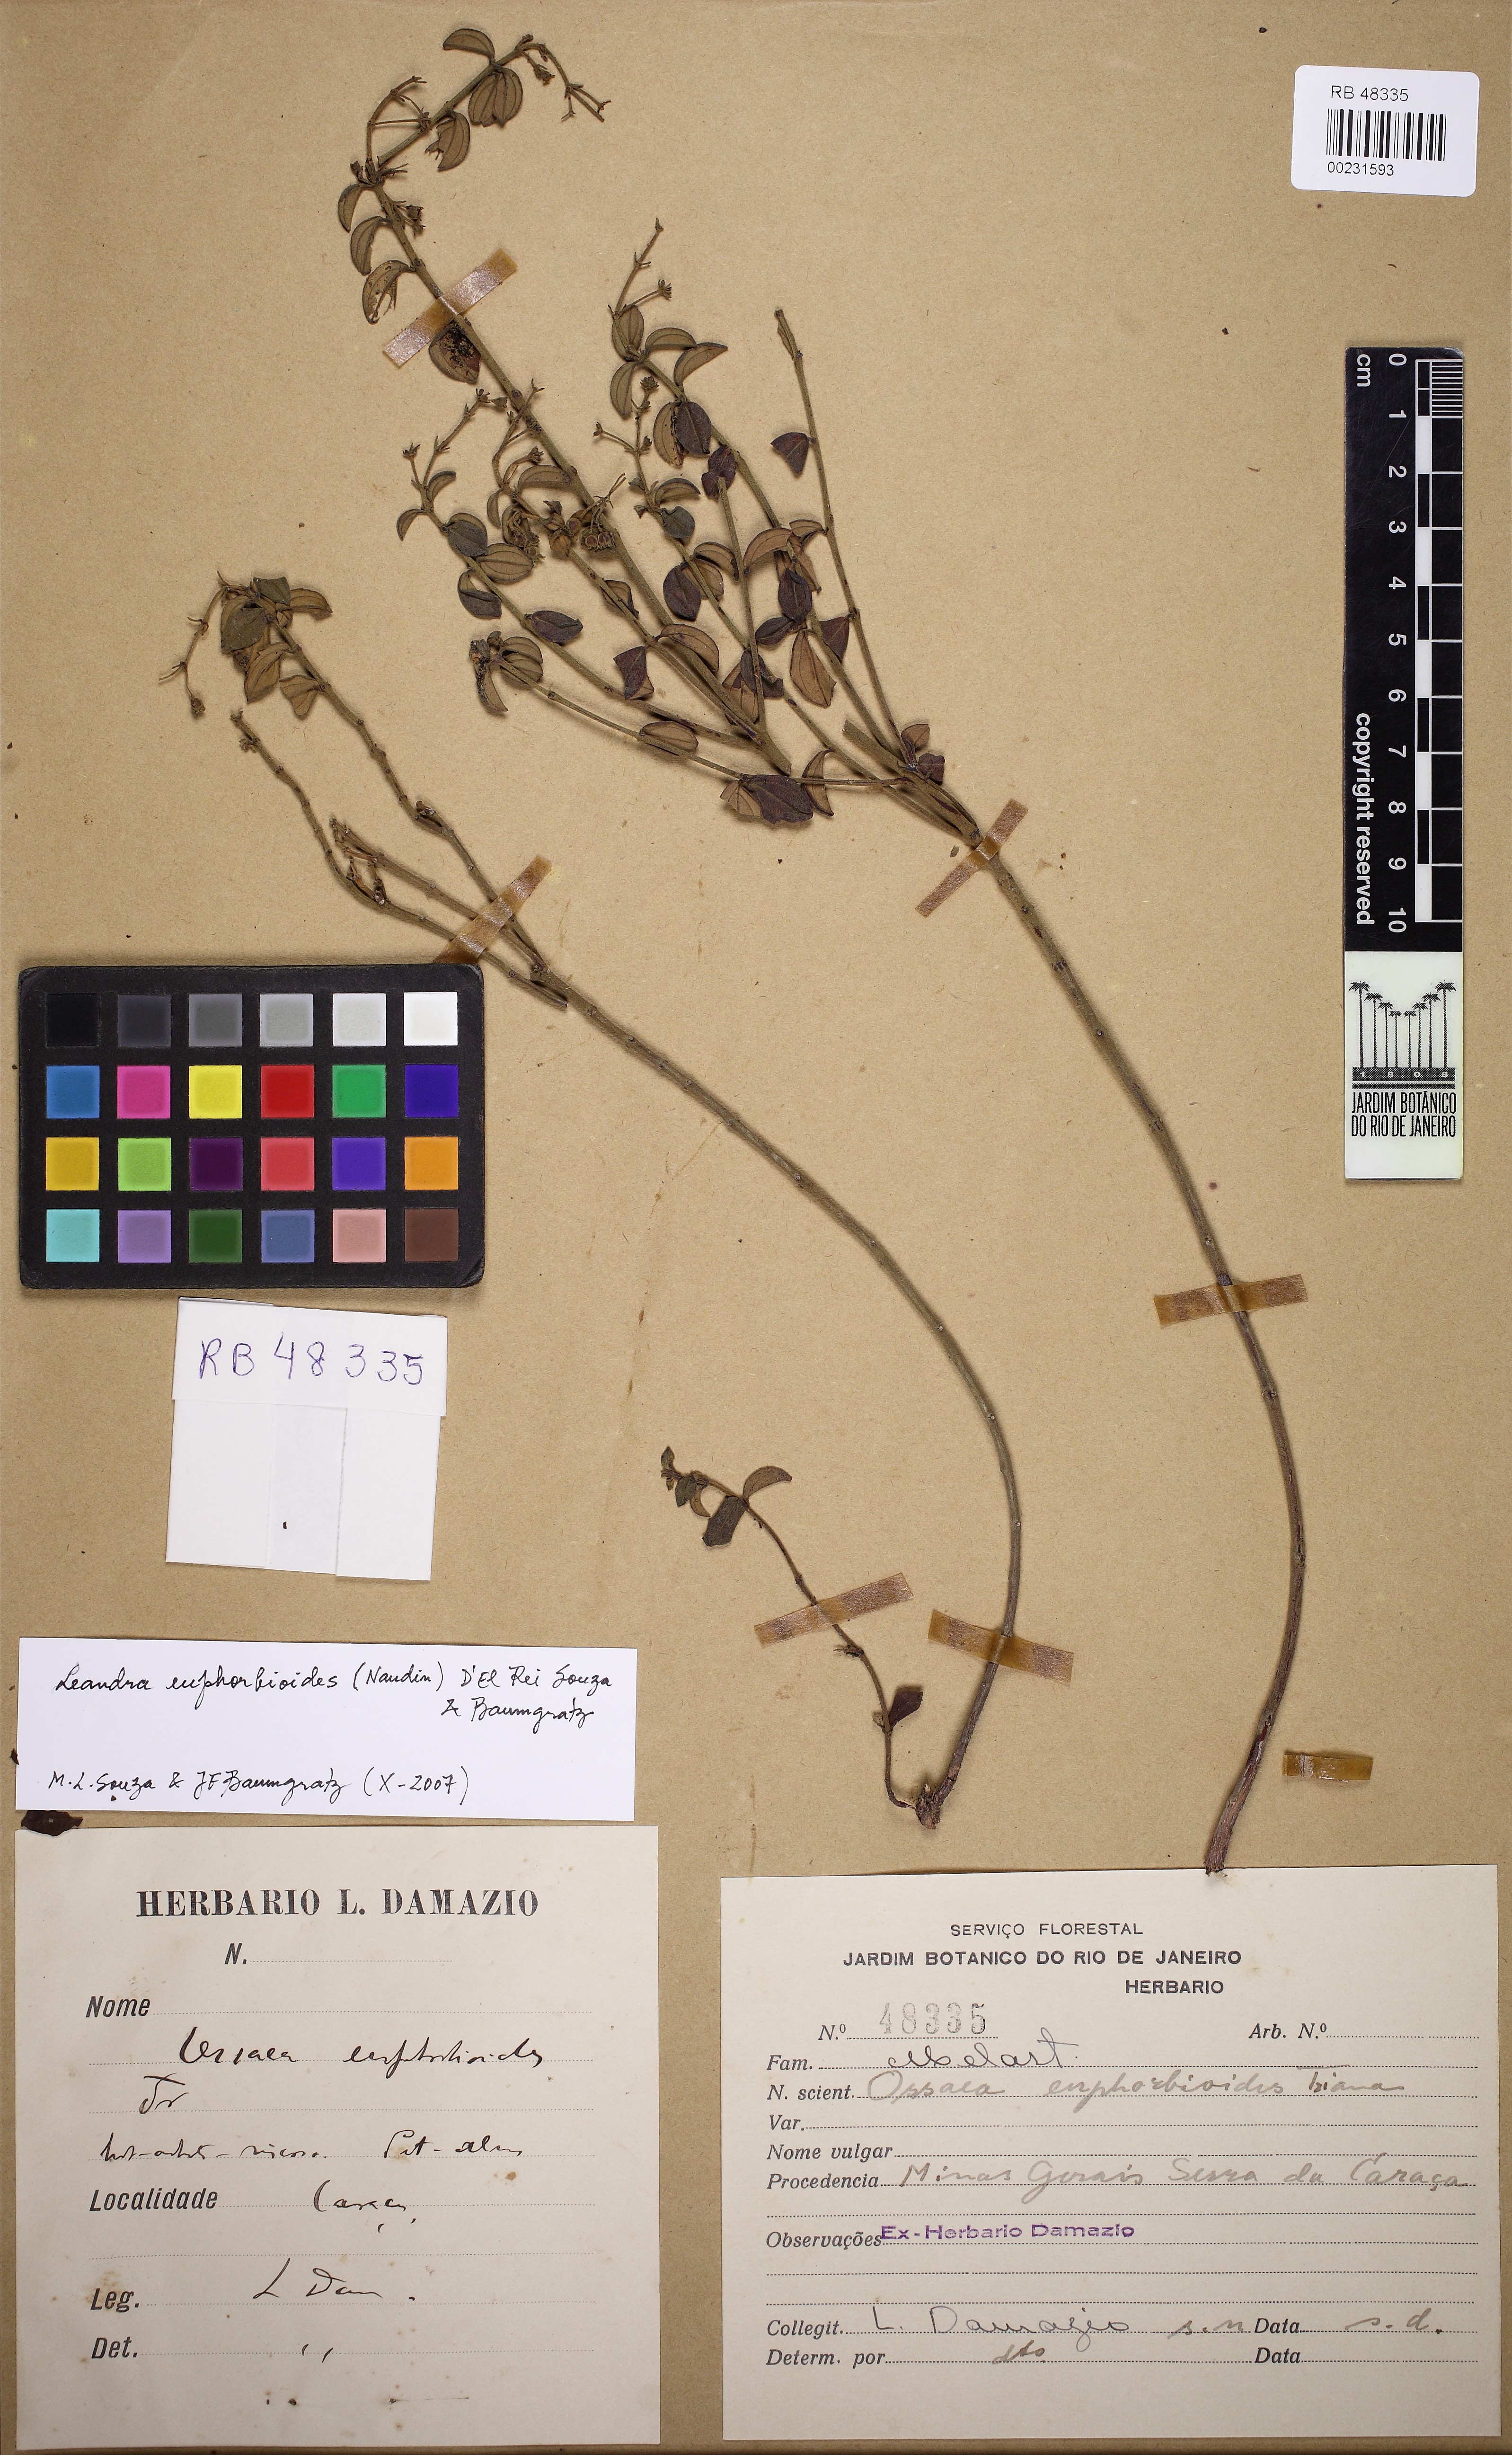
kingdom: Plantae
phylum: Tracheophyta
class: Magnoliopsida
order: Myrtales
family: Melastomataceae
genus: Miconia
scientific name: Miconia euphorbioides
